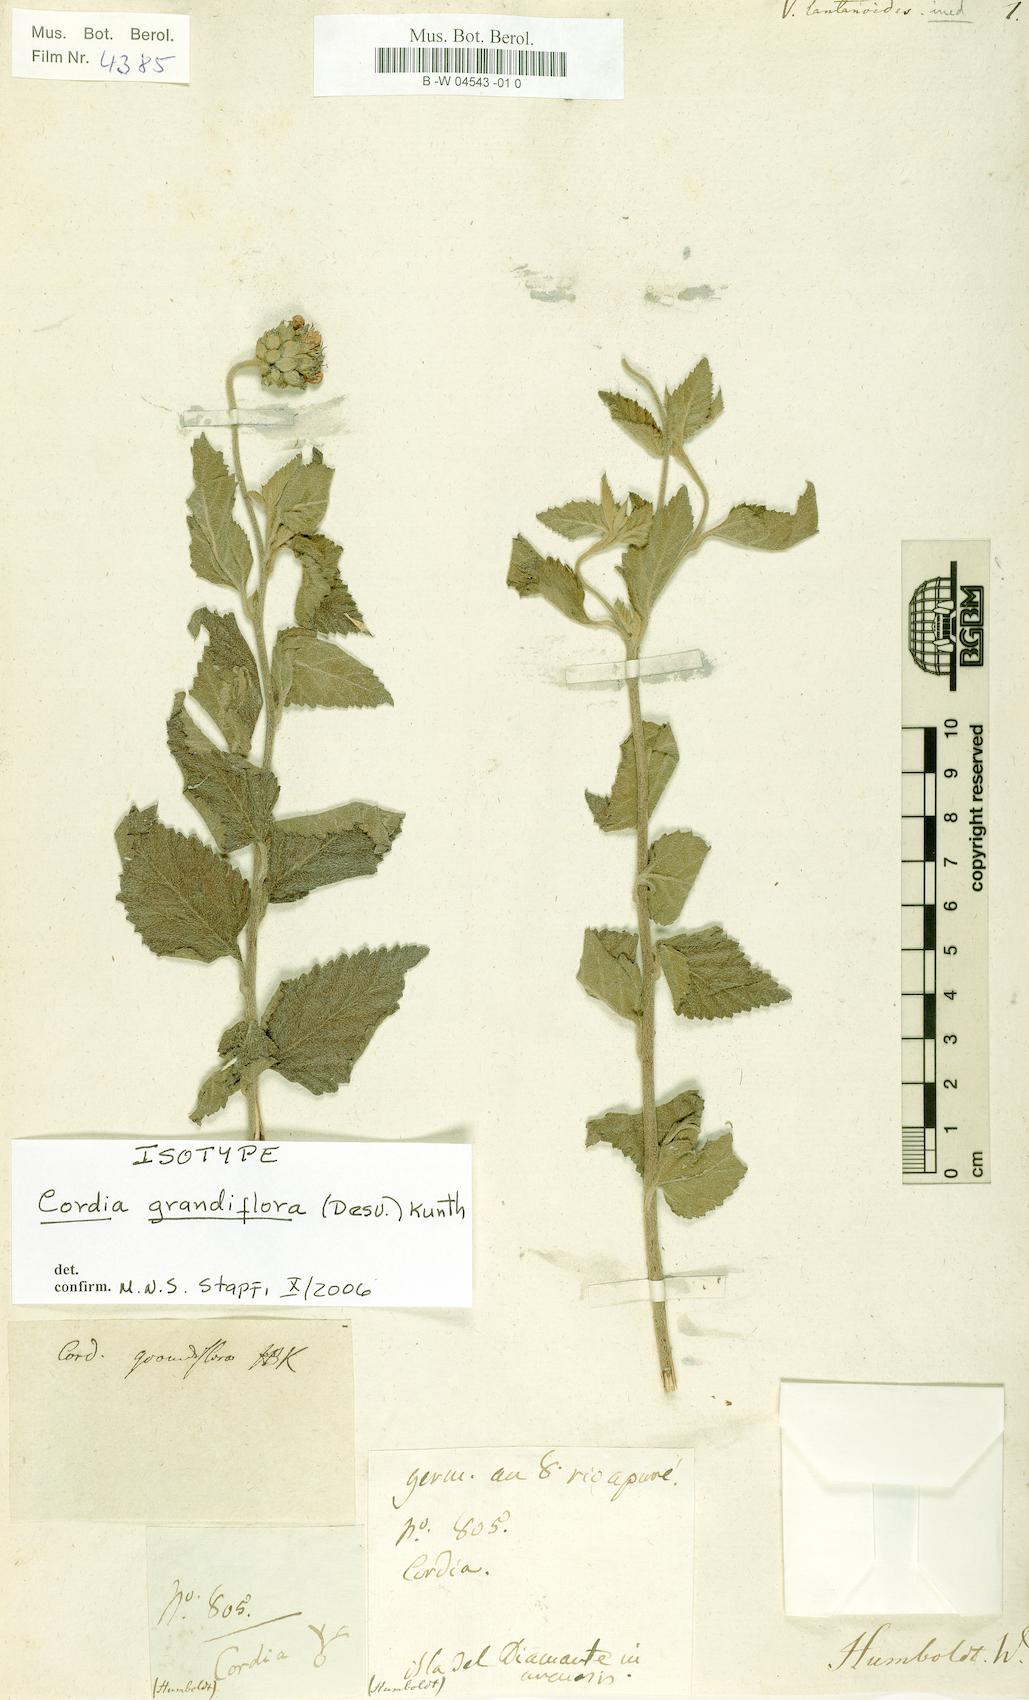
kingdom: Plantae
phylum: Tracheophyta
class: Magnoliopsida
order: Boraginales
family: Cordiaceae
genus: Varronia
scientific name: Varronia grandiflora
